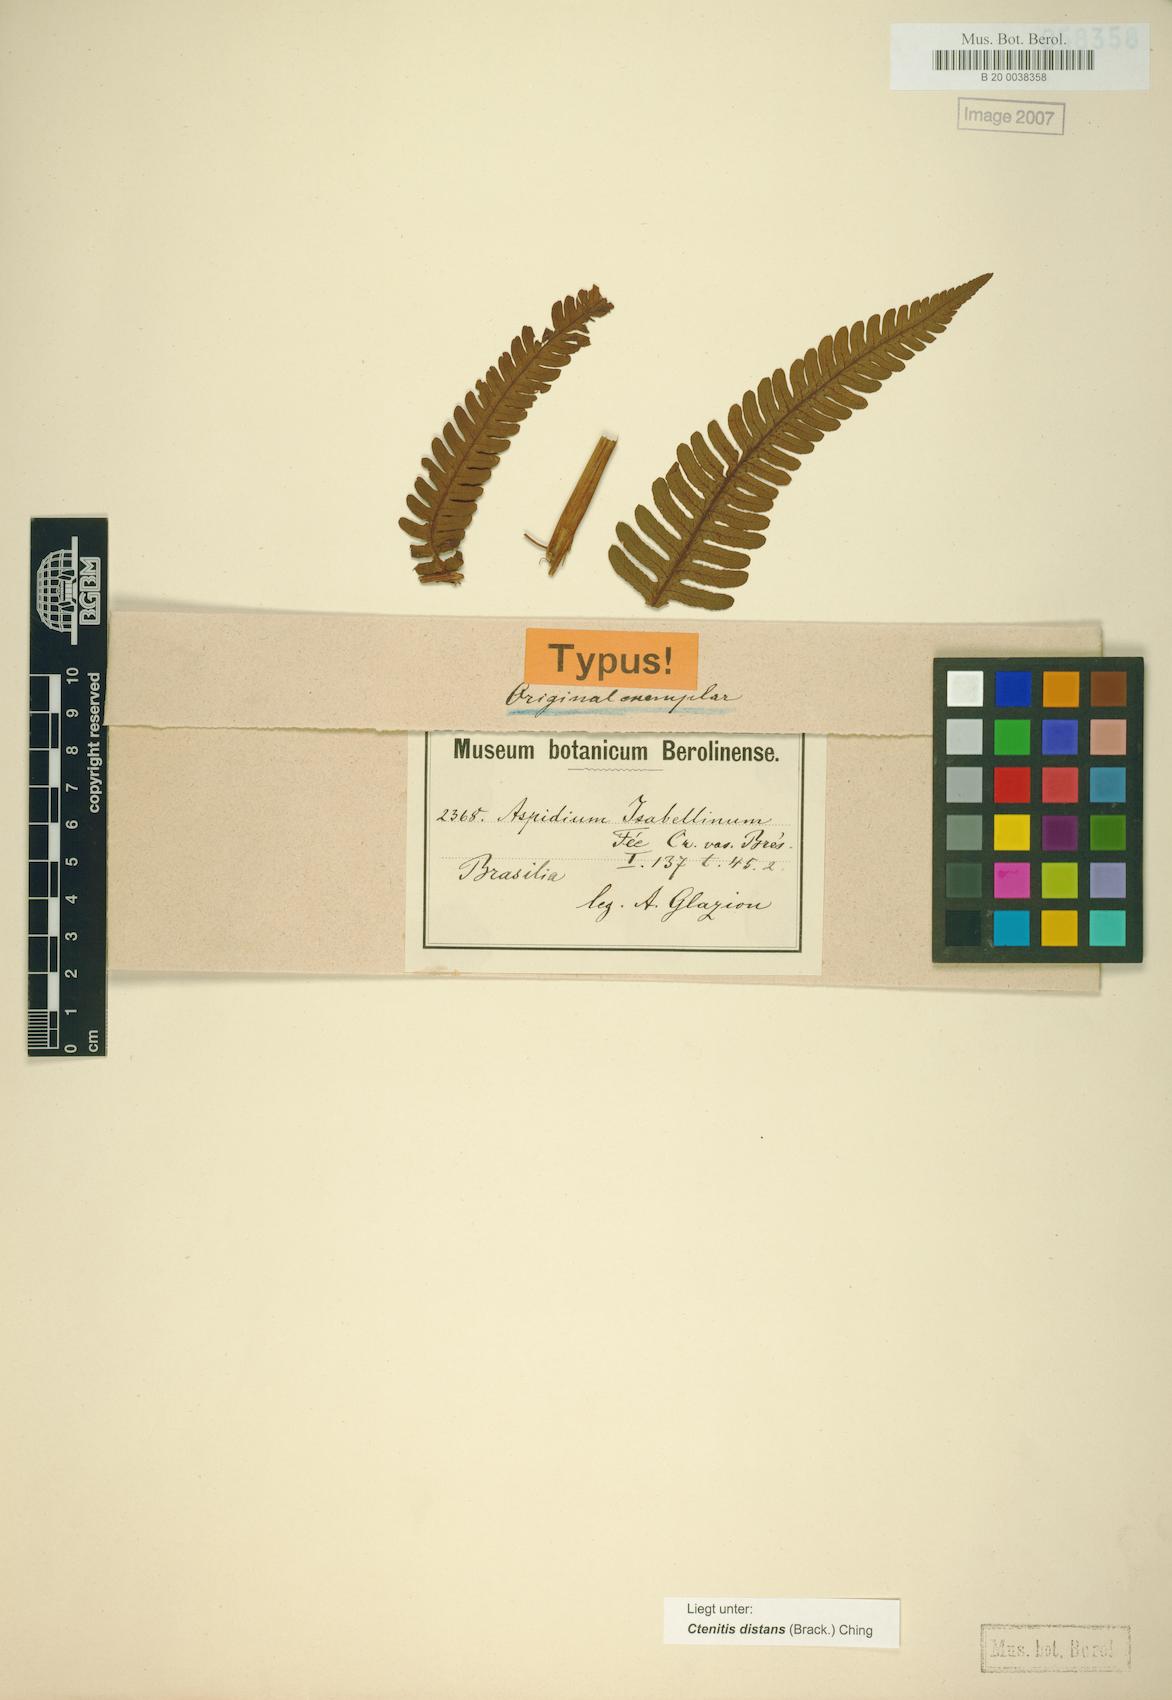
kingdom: Plantae
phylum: Tracheophyta
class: Polypodiopsida
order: Polypodiales
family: Dryopteridaceae
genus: Ctenitis
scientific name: Ctenitis distans
